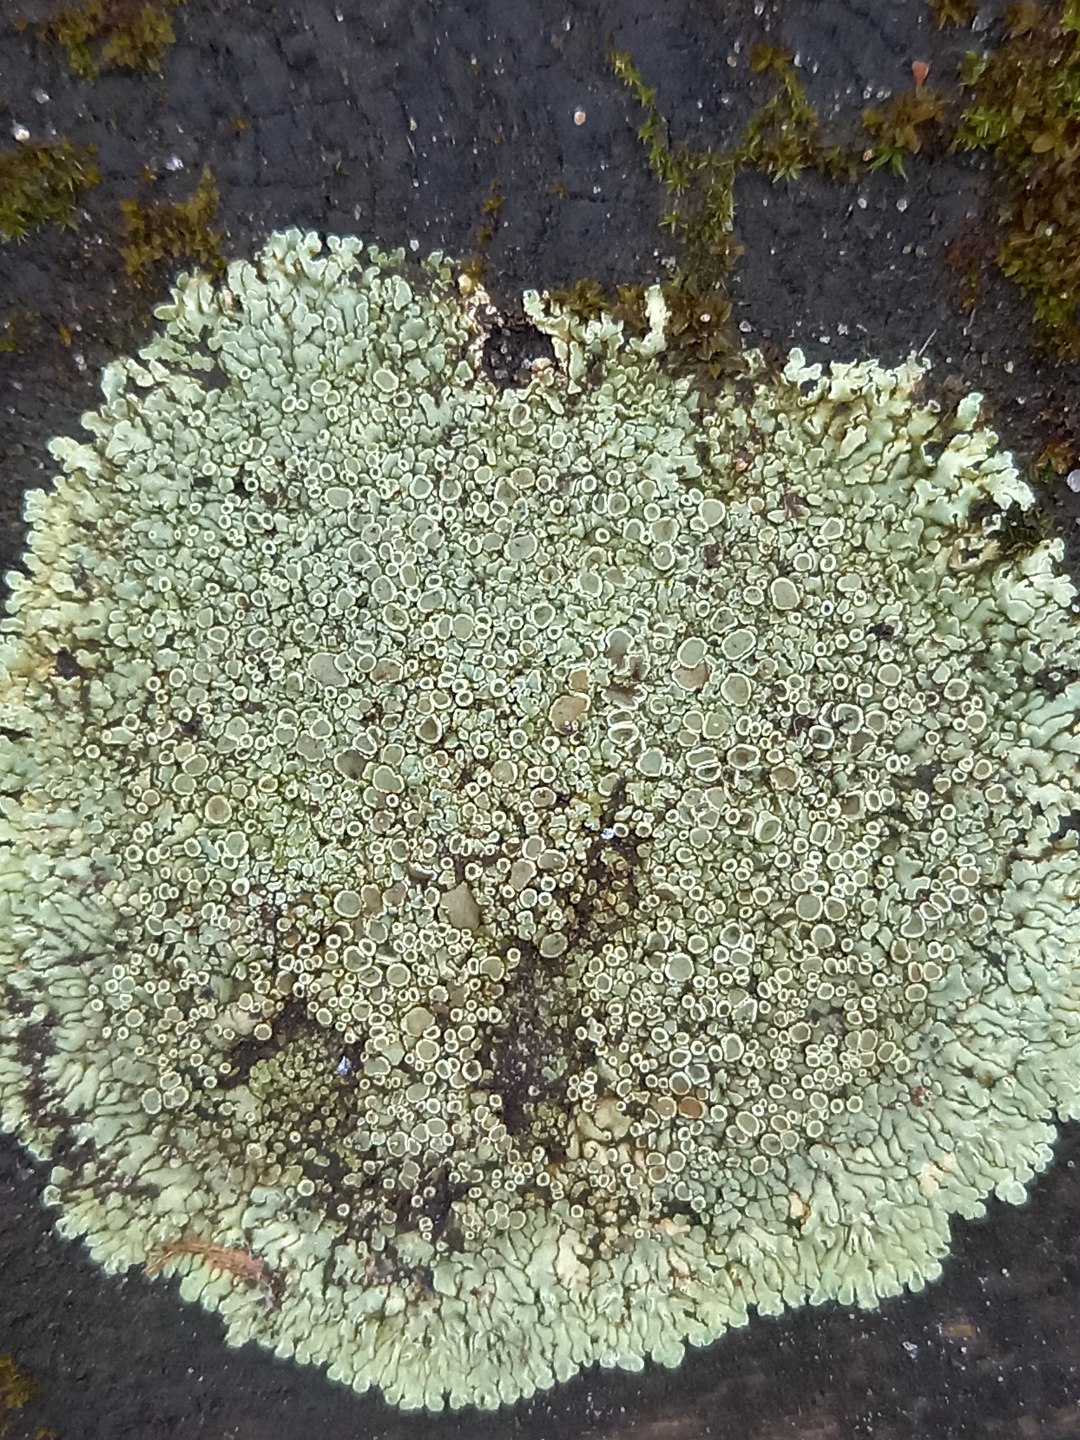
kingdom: Fungi
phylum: Ascomycota
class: Lecanoromycetes
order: Lecanorales
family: Lecanoraceae
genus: Protoparmeliopsis
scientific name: Protoparmeliopsis muralis
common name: randfliget kantskivelav
